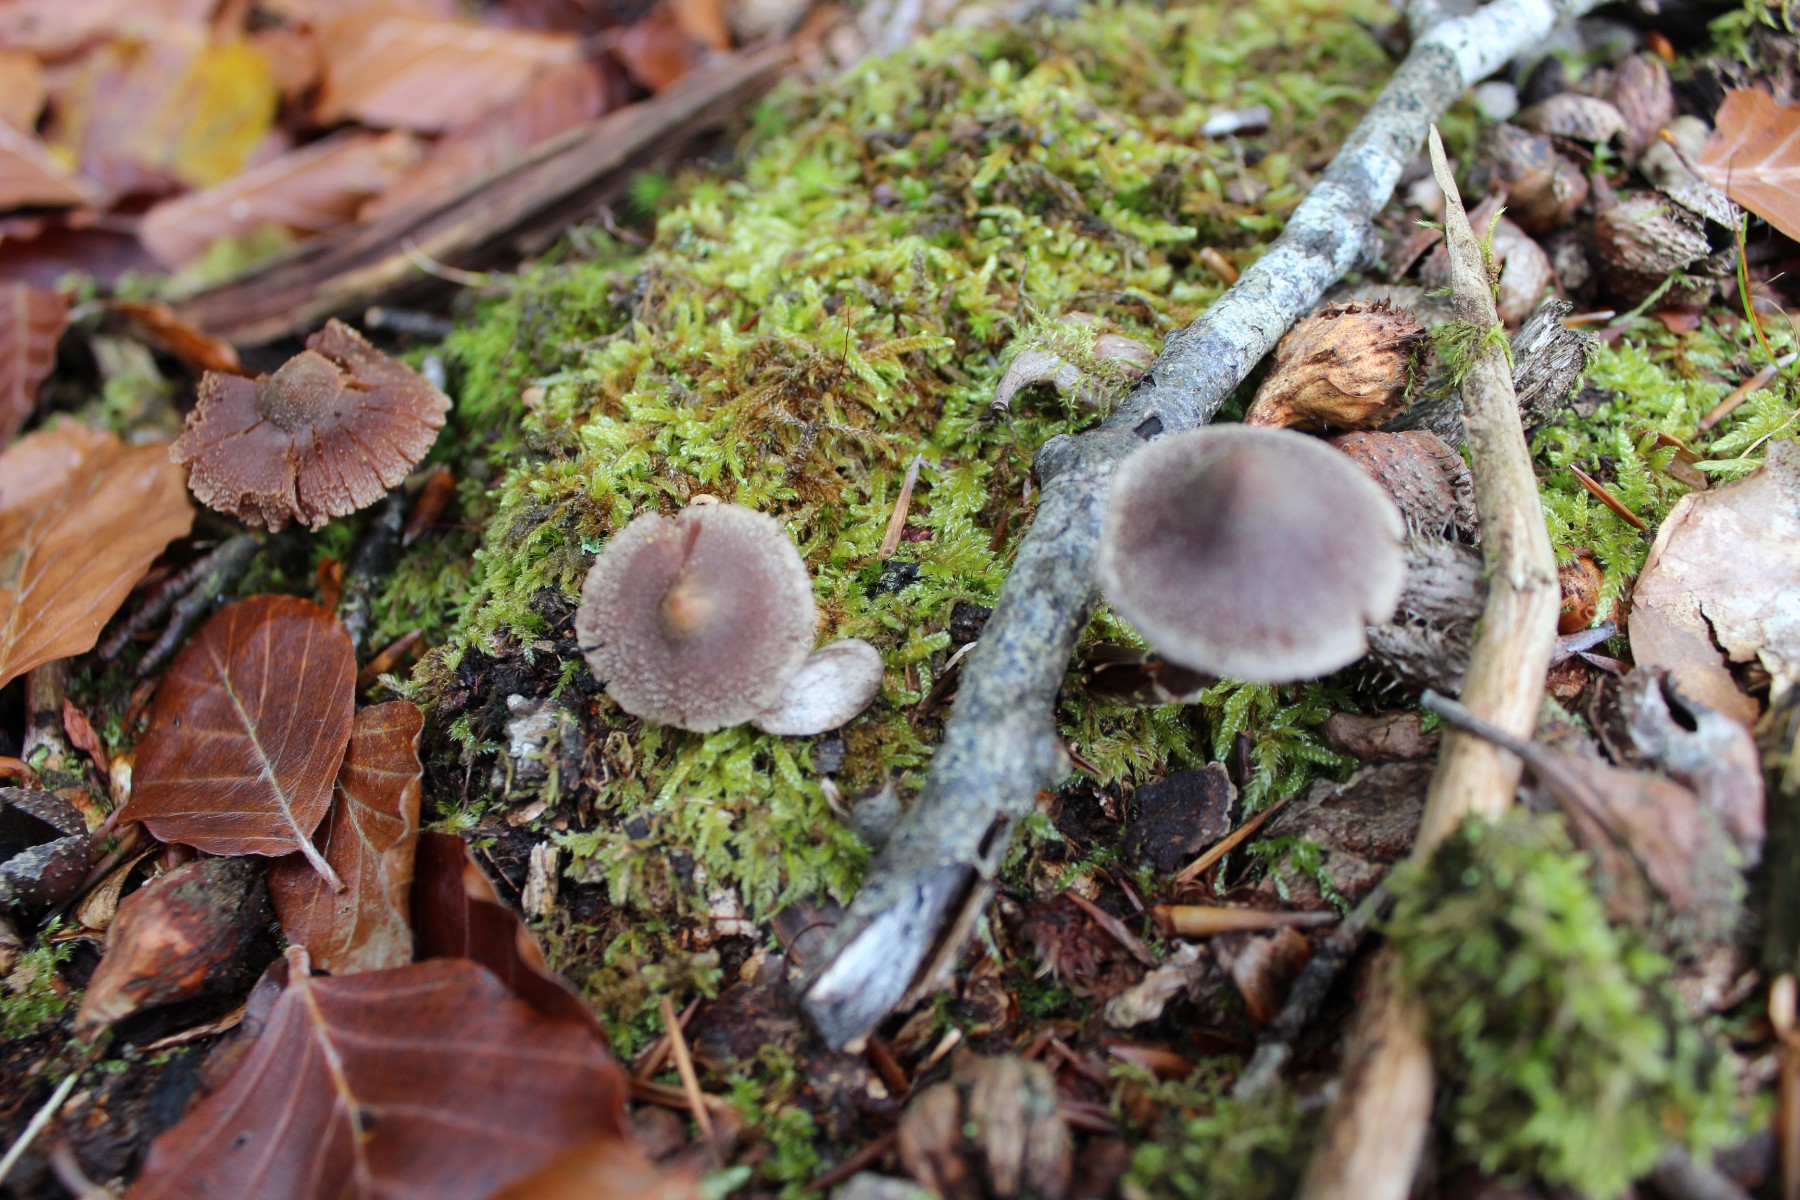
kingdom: Fungi
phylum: Basidiomycota
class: Agaricomycetes
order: Agaricales
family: Cortinariaceae
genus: Cortinarius
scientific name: Cortinarius
